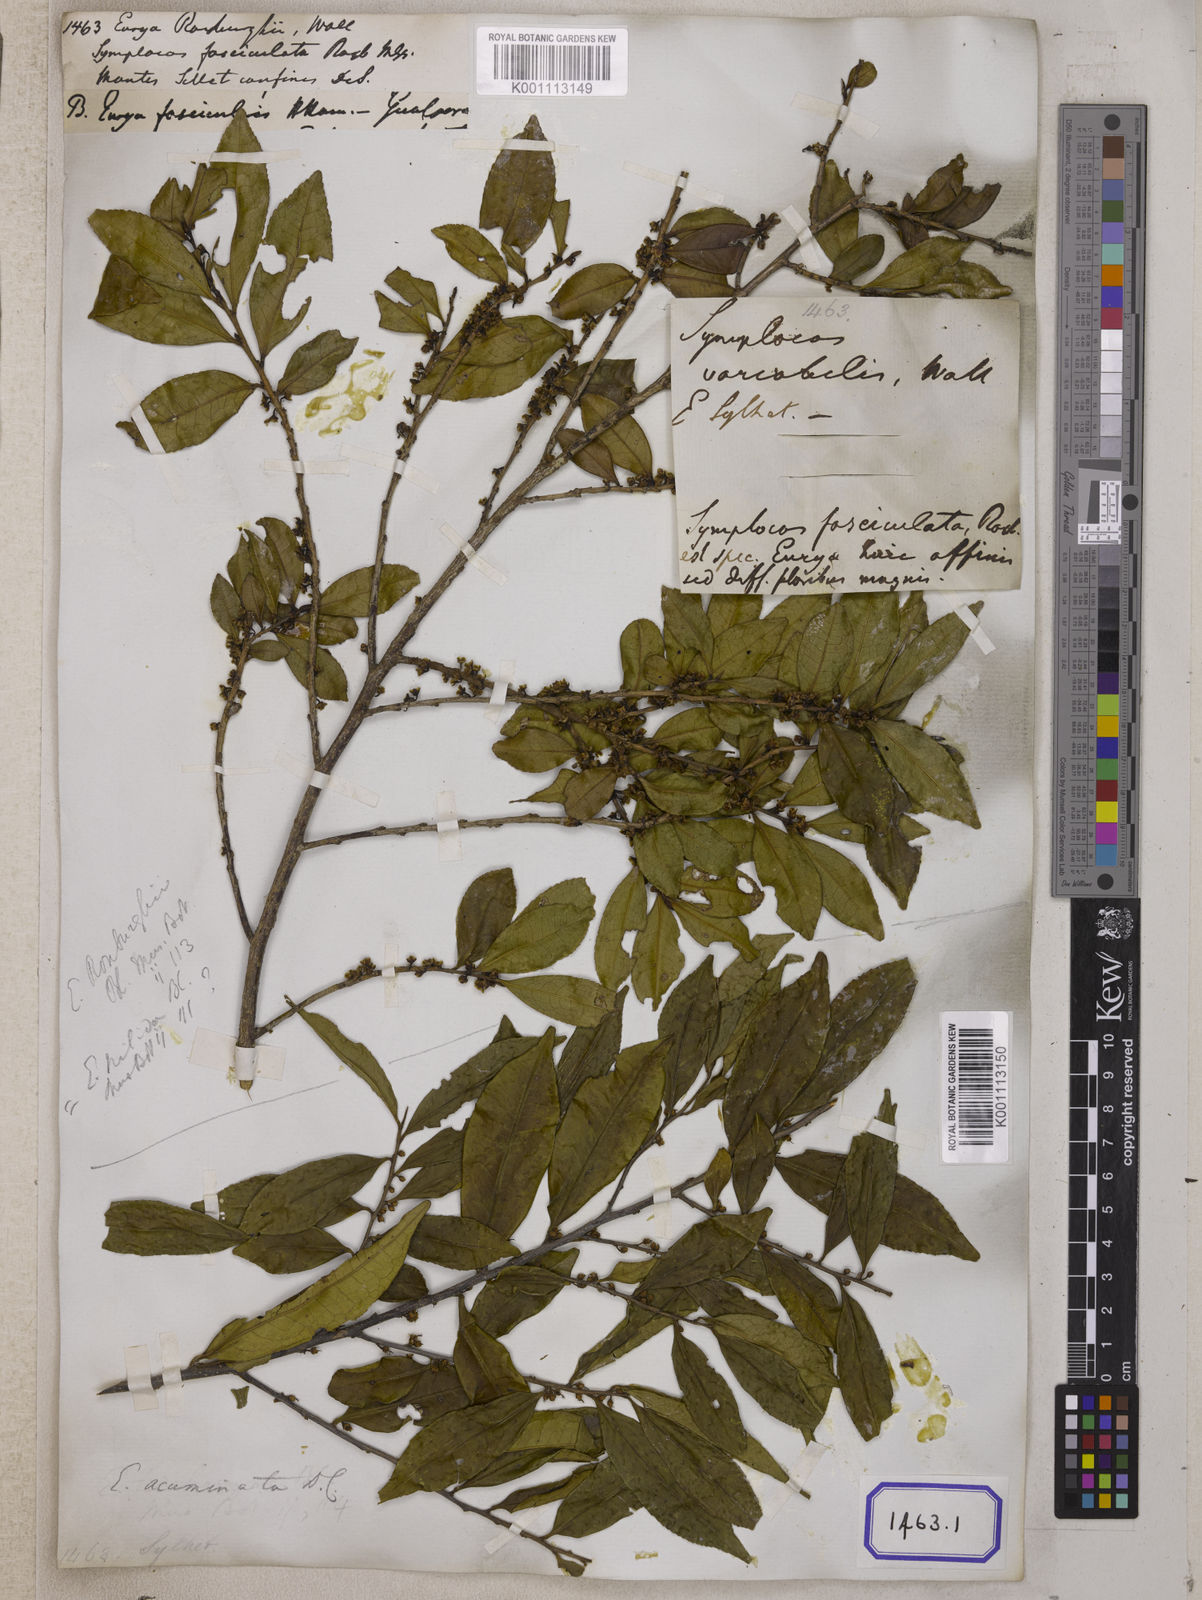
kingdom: Plantae
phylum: Tracheophyta
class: Magnoliopsida
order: Ericales
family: Pentaphylacaceae
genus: Eurya
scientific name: Eurya nitida
